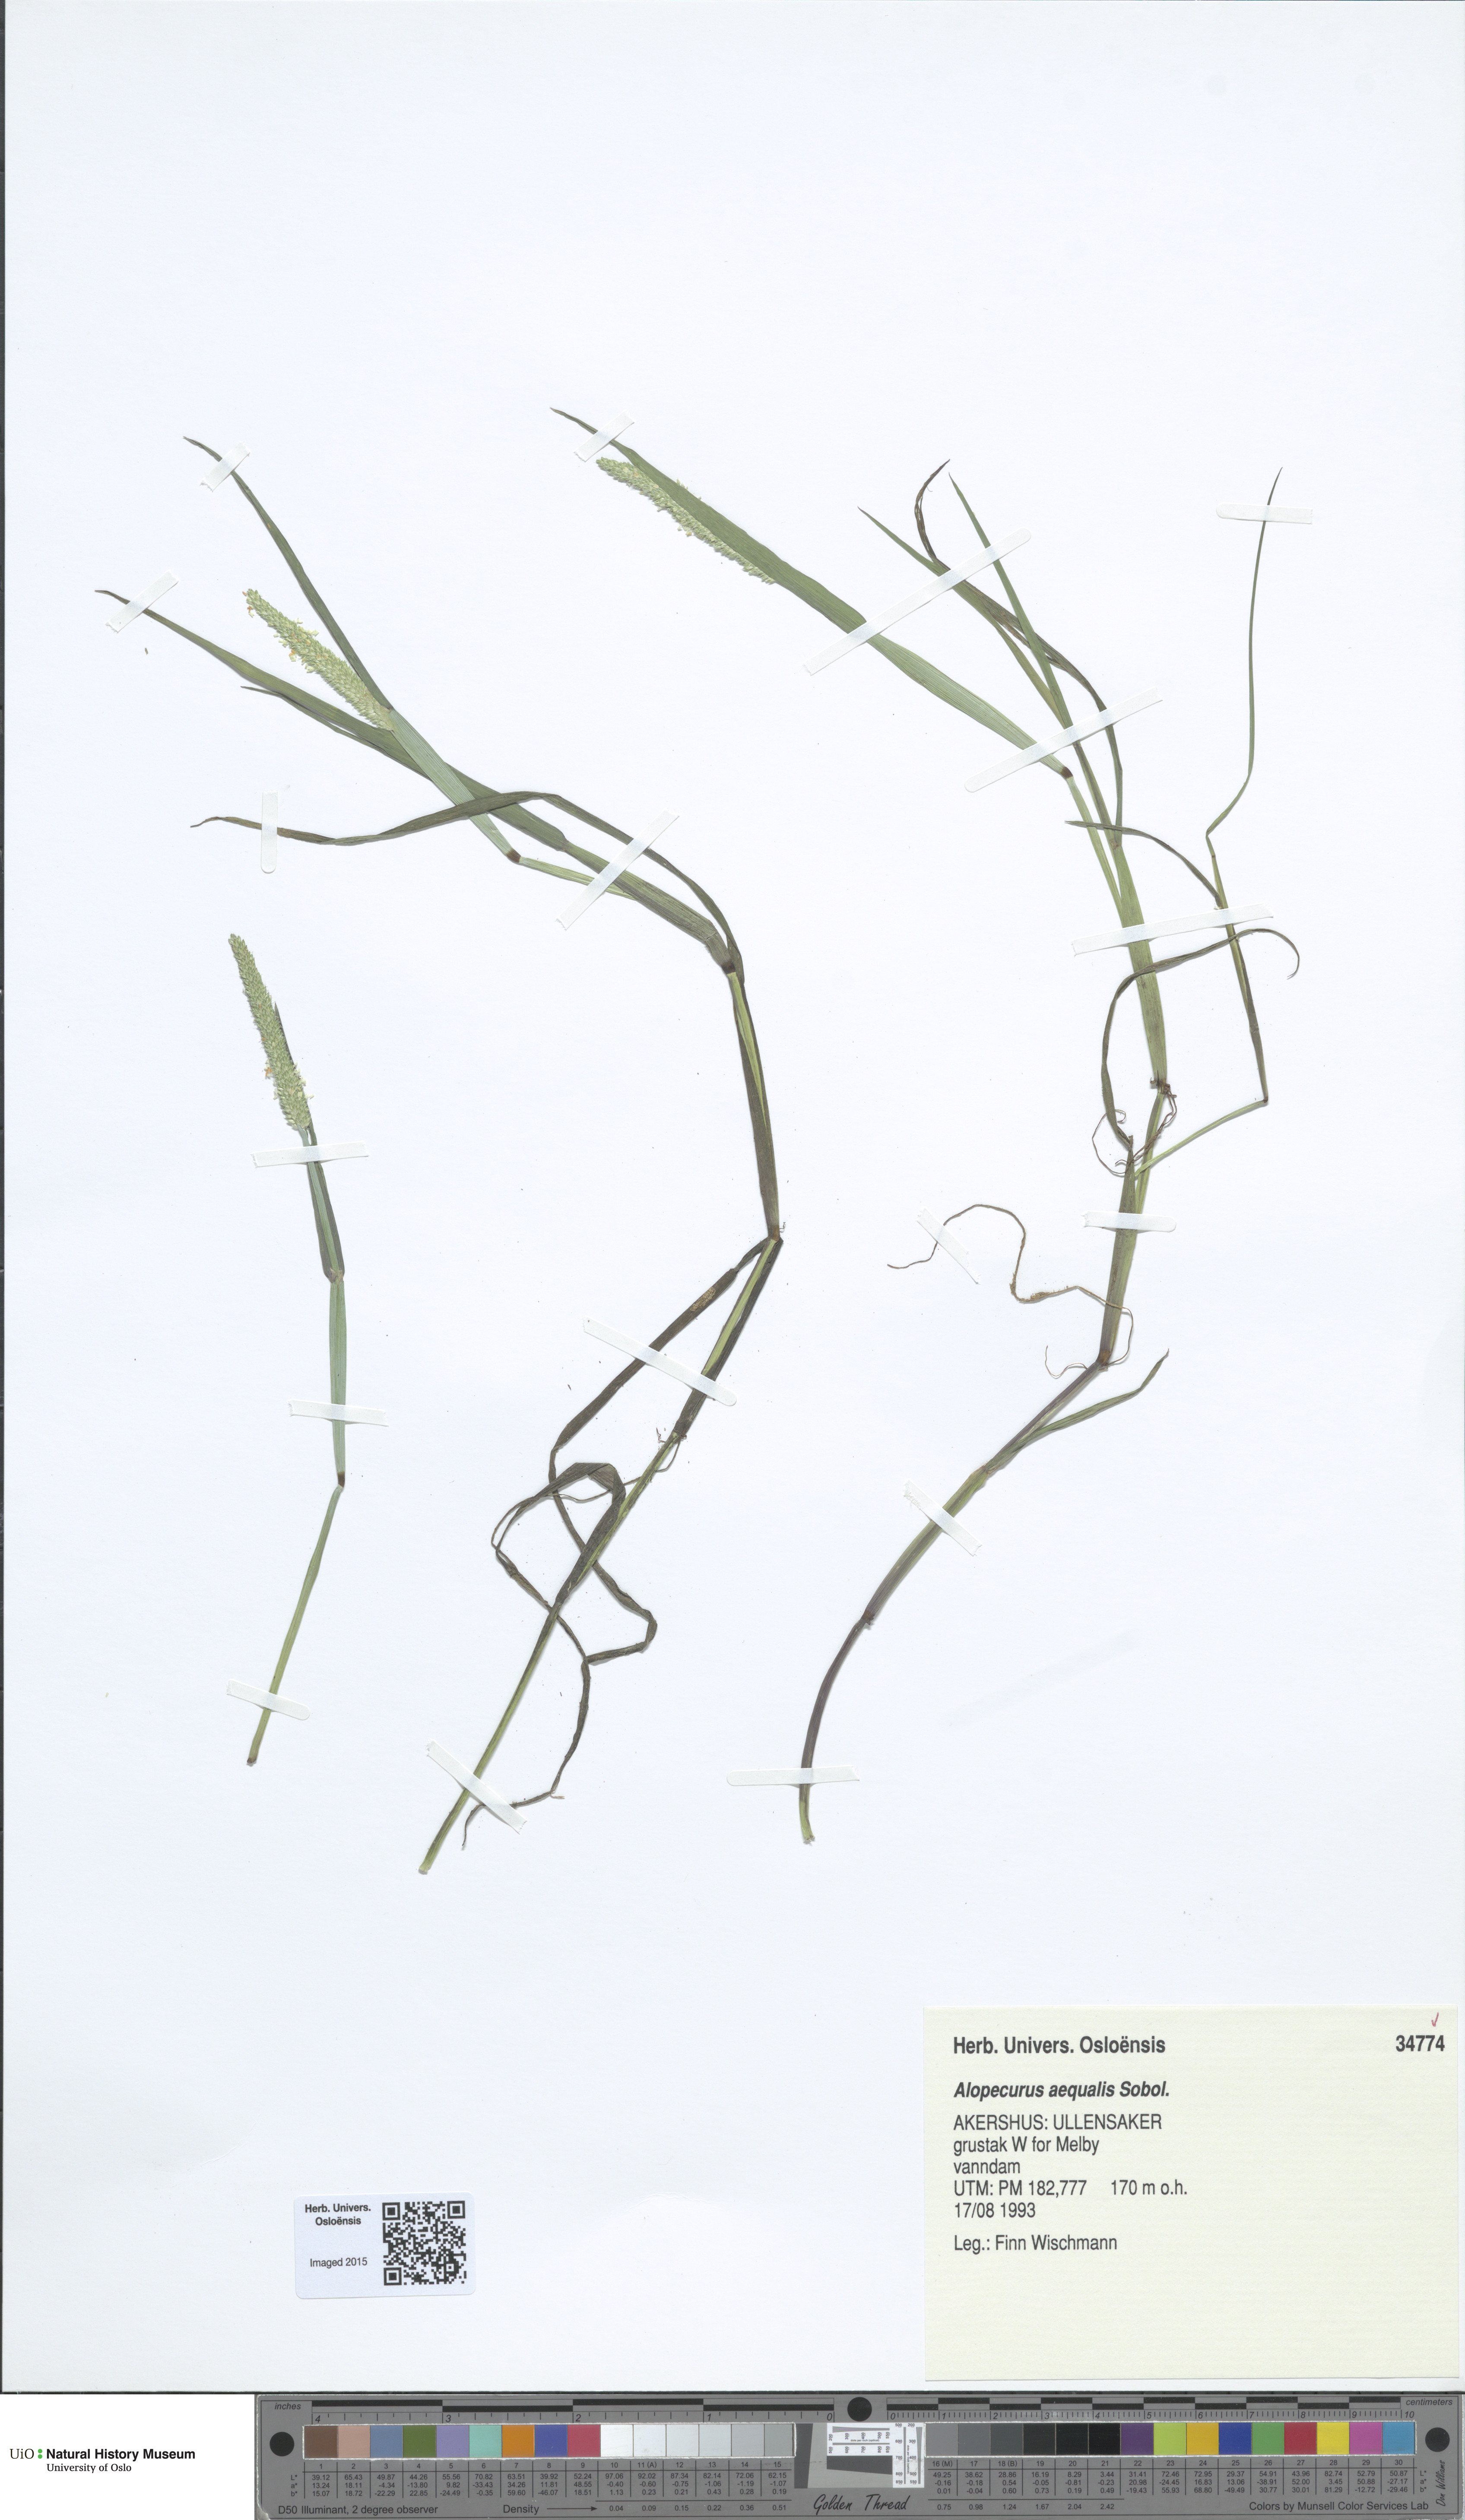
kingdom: Plantae
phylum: Tracheophyta
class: Liliopsida
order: Poales
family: Poaceae
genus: Alopecurus
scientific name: Alopecurus aequalis
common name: Orange foxtail
